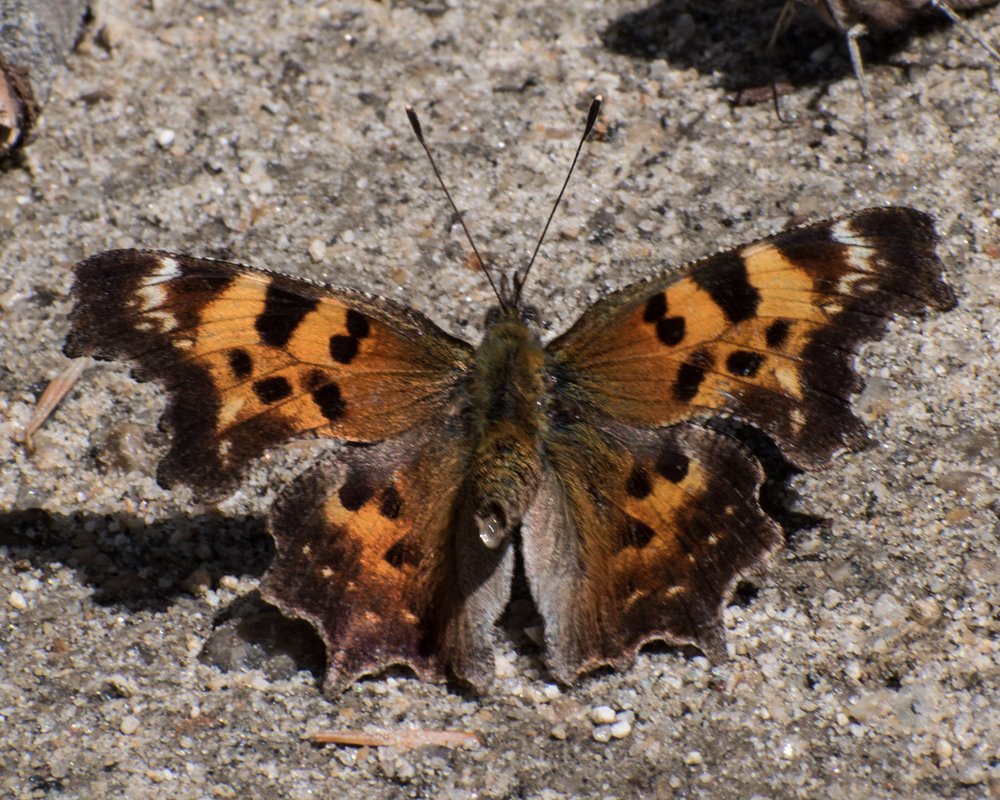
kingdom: Animalia
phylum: Arthropoda
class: Insecta
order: Lepidoptera
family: Nymphalidae
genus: Polygonia
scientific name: Polygonia faunus
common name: Green Comma
